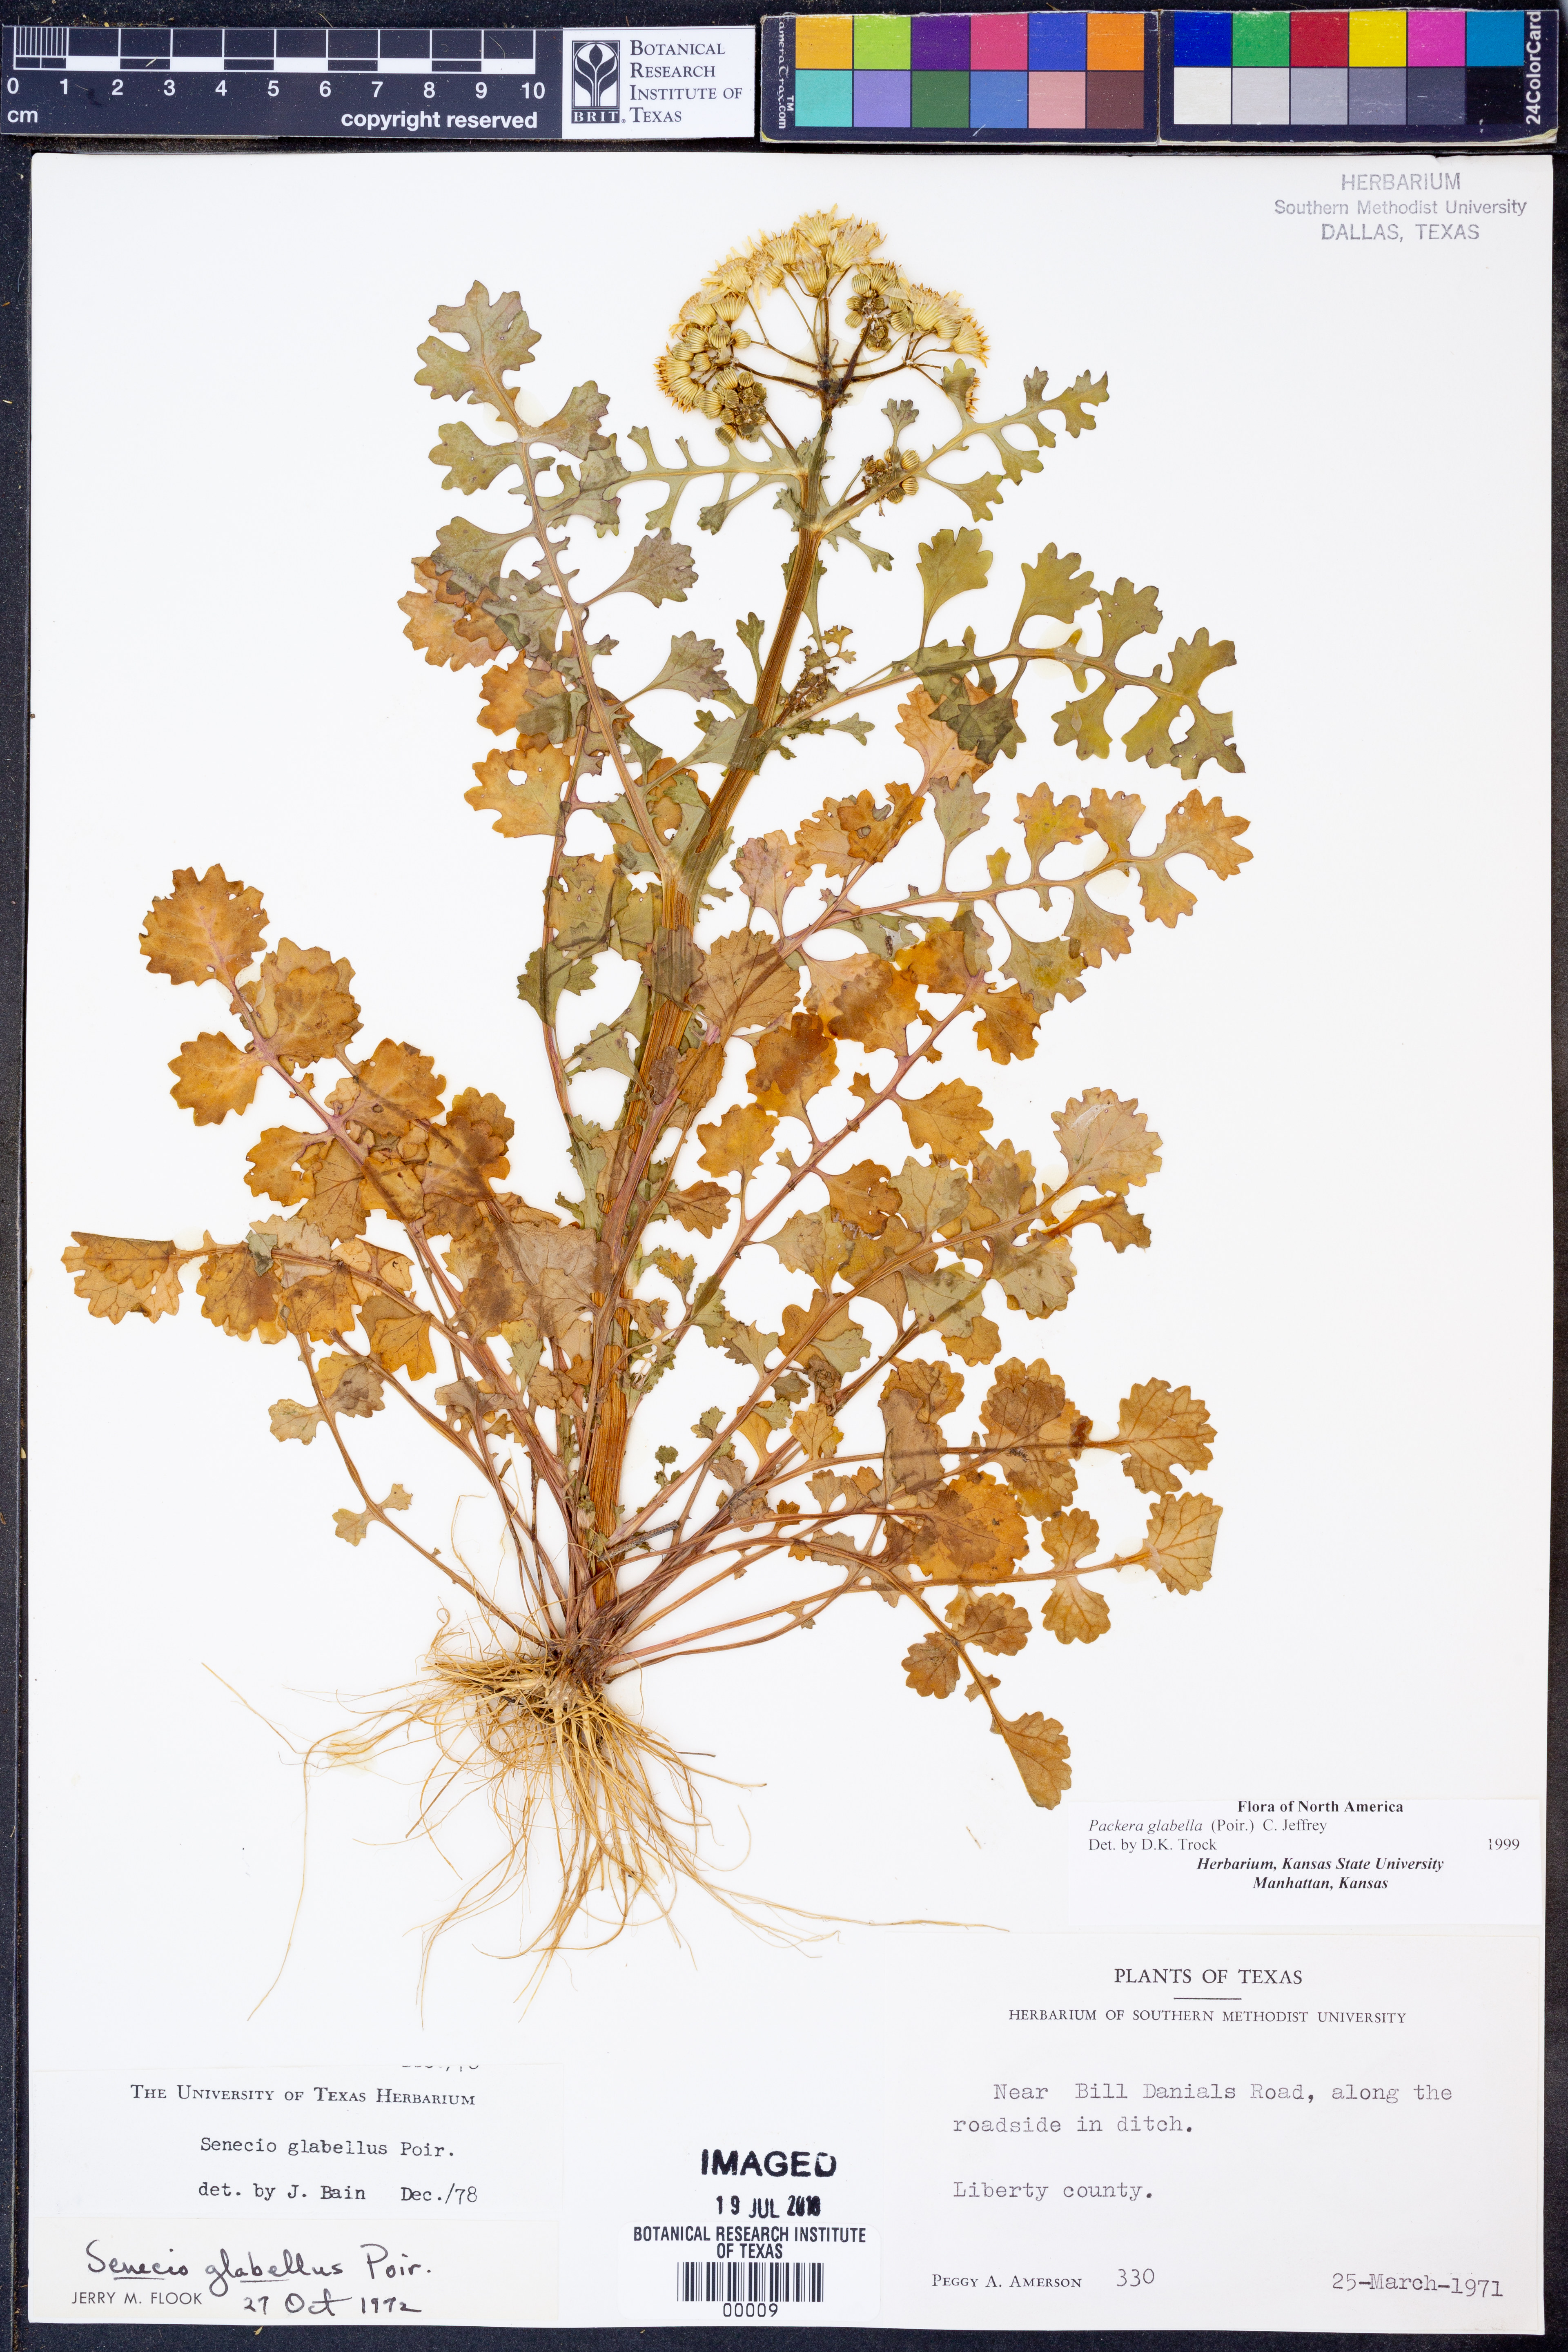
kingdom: Plantae
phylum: Tracheophyta
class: Magnoliopsida
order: Asterales
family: Asteraceae
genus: Packera
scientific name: Packera glabella
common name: Butterweed
